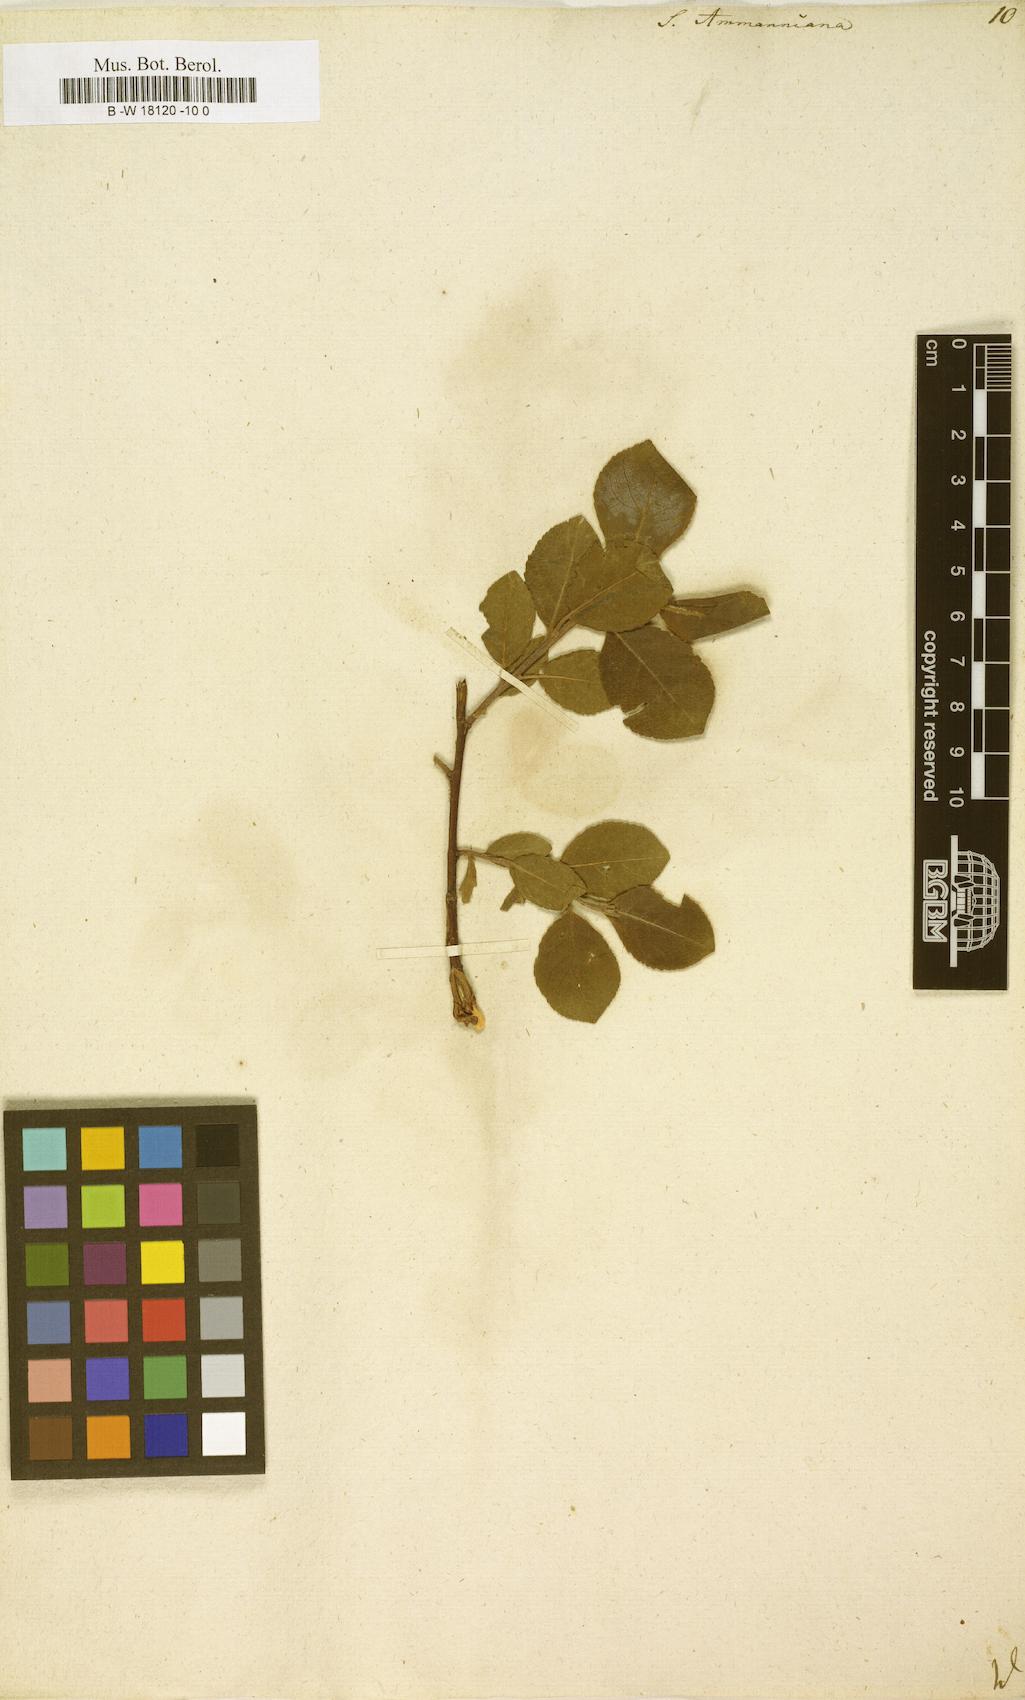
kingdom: Plantae
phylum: Tracheophyta
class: Magnoliopsida
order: Malpighiales
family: Salicaceae
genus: Salix
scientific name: Salix myrsinifolia
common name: Dark-leaved willow
